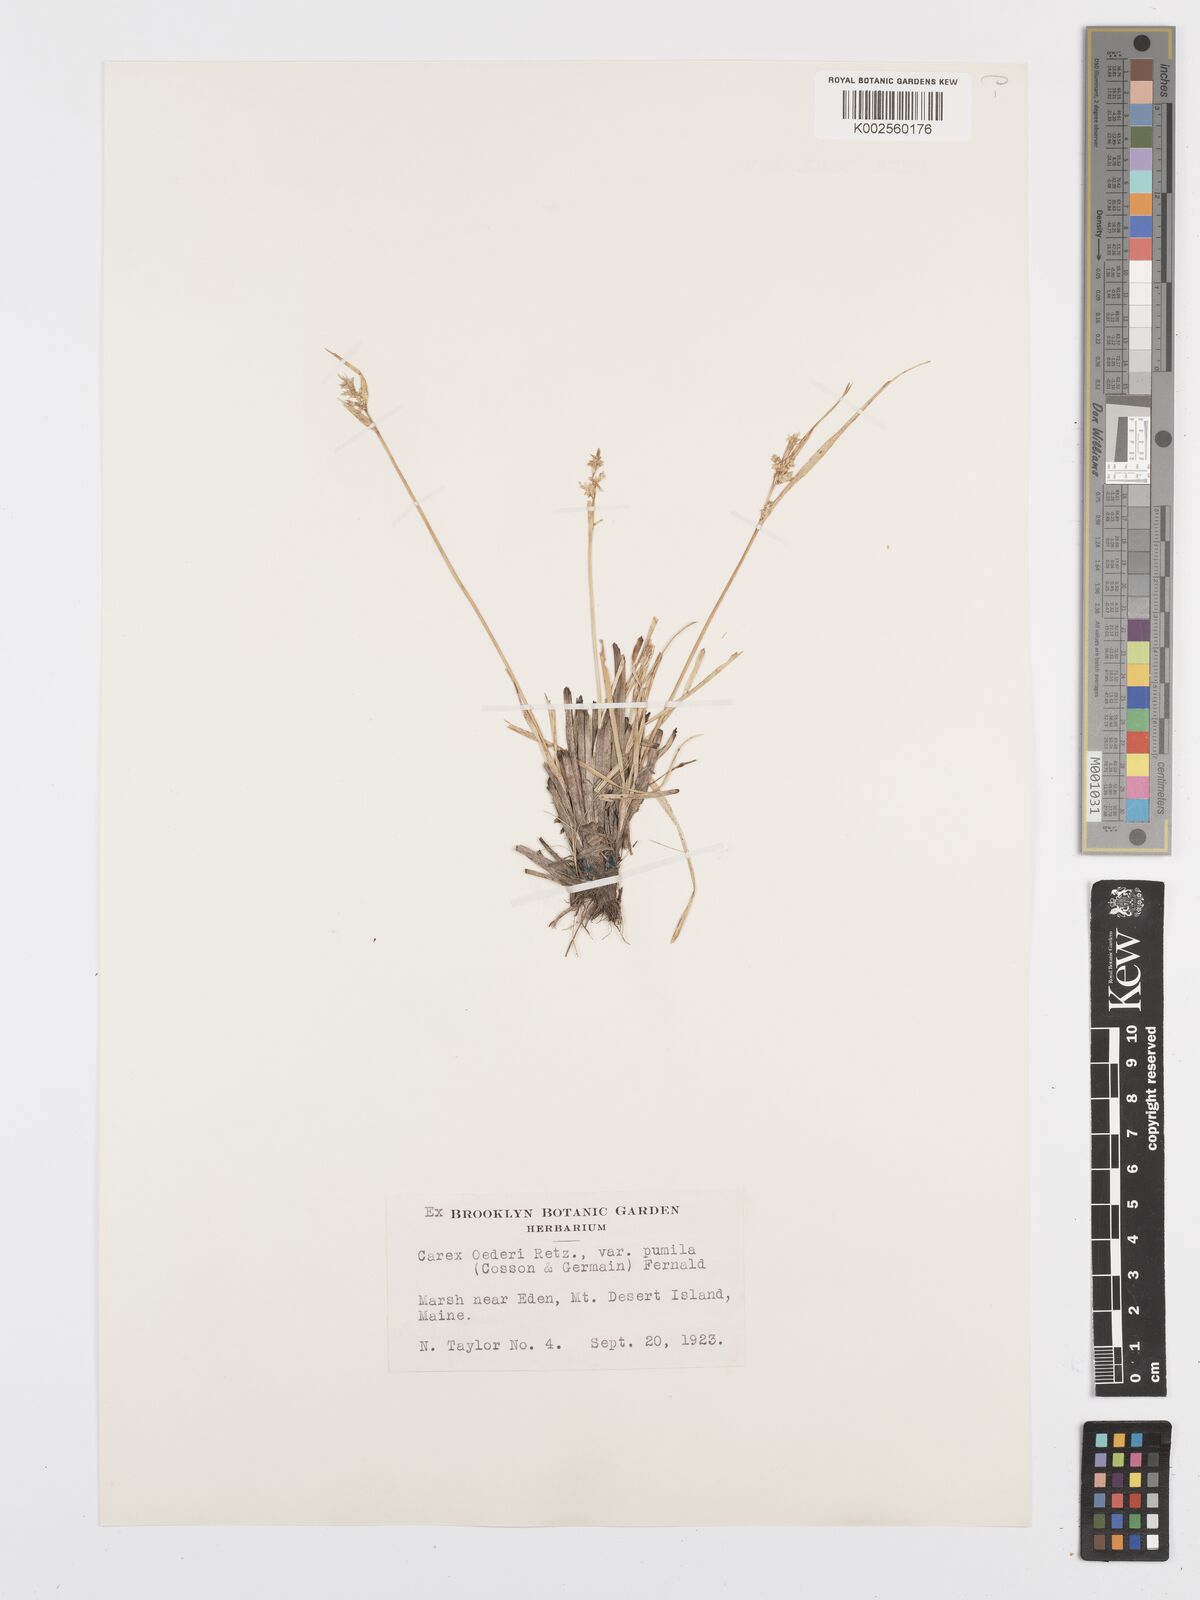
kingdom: Plantae
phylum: Tracheophyta
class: Liliopsida
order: Poales
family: Cyperaceae
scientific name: Cyperaceae
